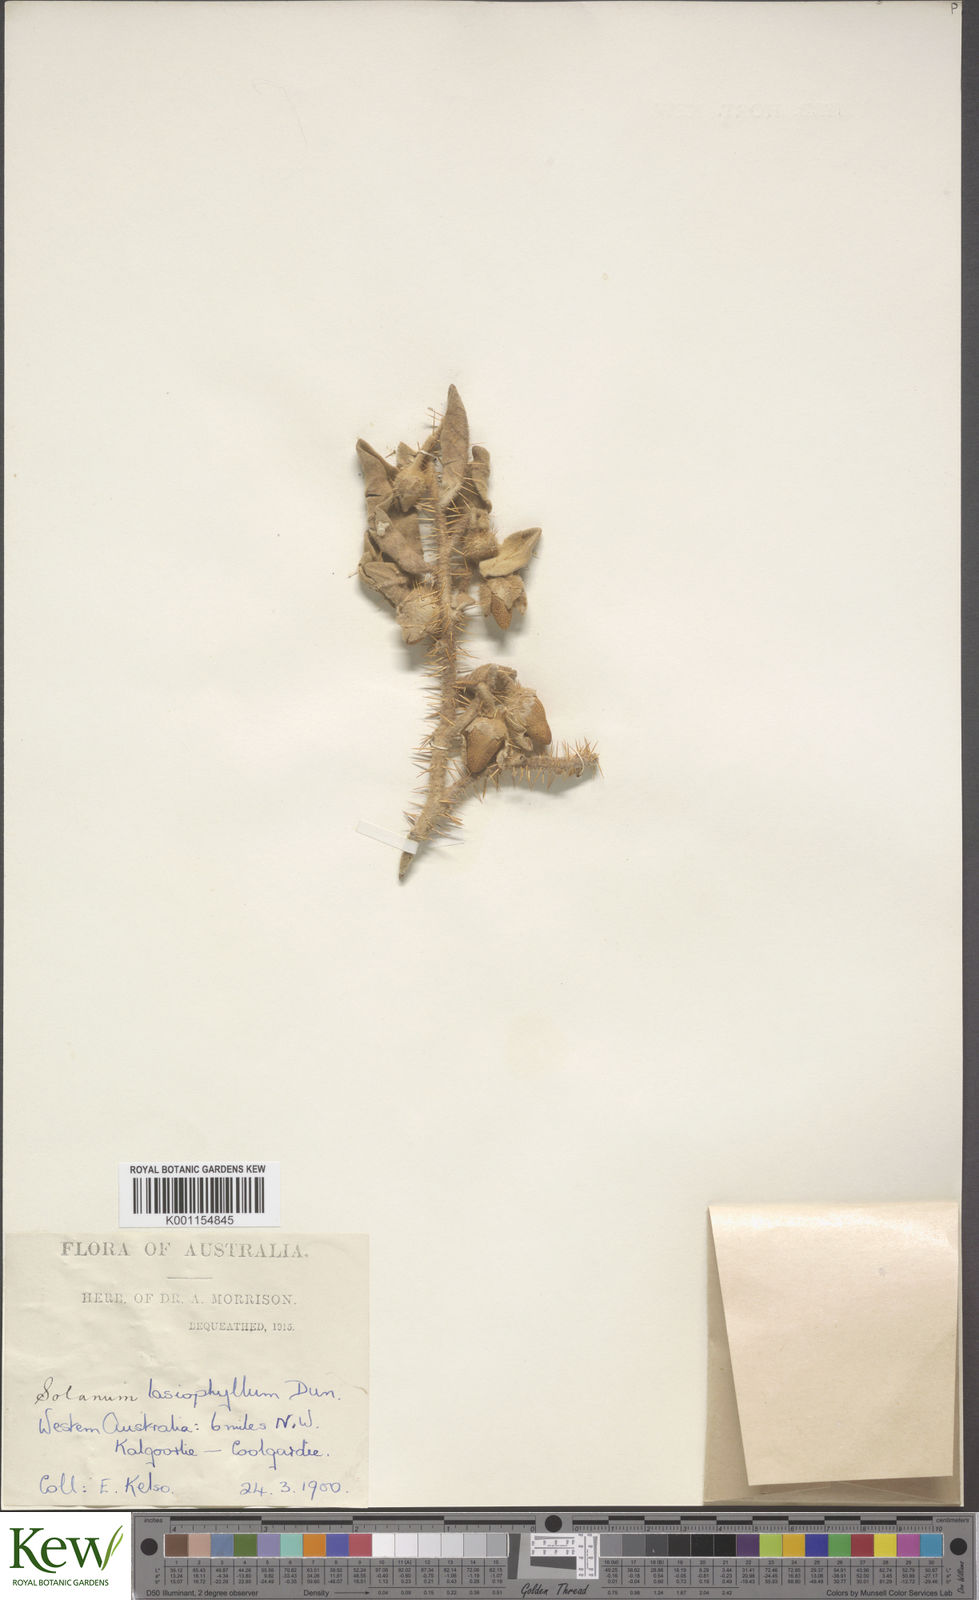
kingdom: Plantae
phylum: Tracheophyta
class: Magnoliopsida
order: Solanales
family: Solanaceae
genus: Solanum
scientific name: Solanum lasiophyllum
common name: Flannelbush
